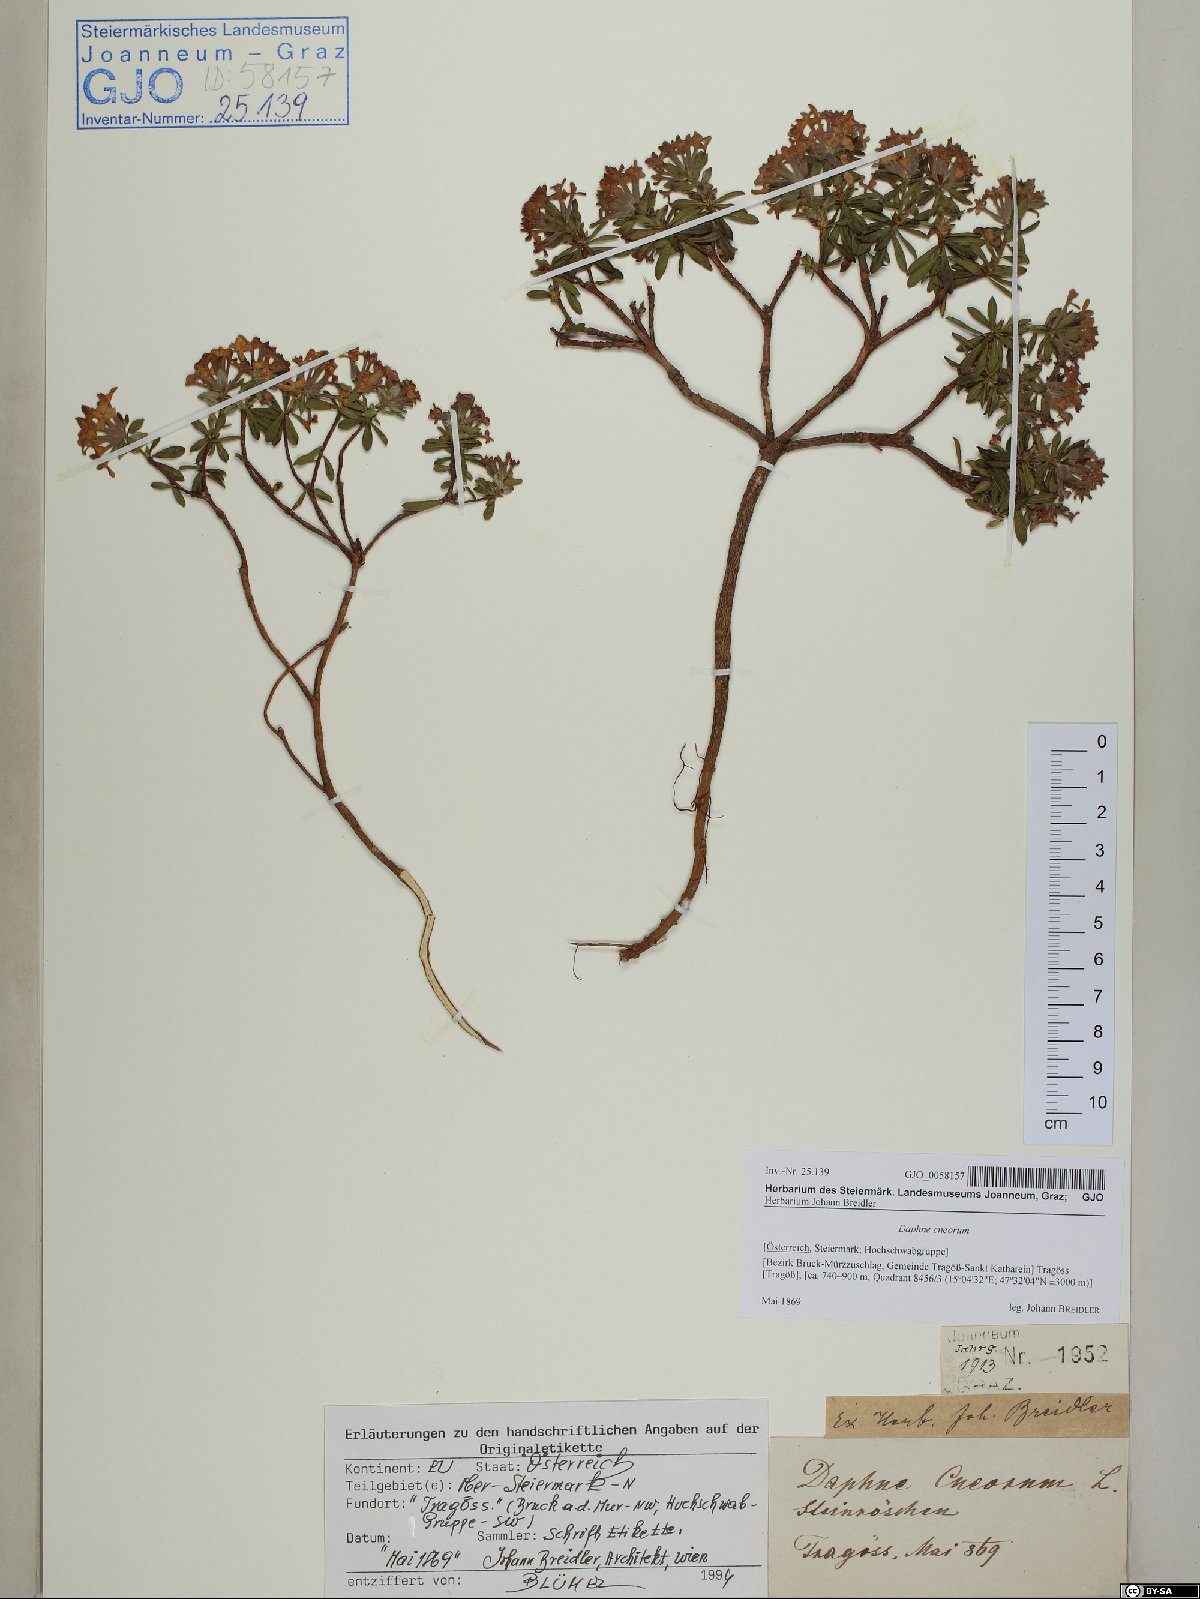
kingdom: Plantae
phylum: Tracheophyta
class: Magnoliopsida
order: Malvales
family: Thymelaeaceae
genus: Daphne
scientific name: Daphne cneorum
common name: Garland-flower
